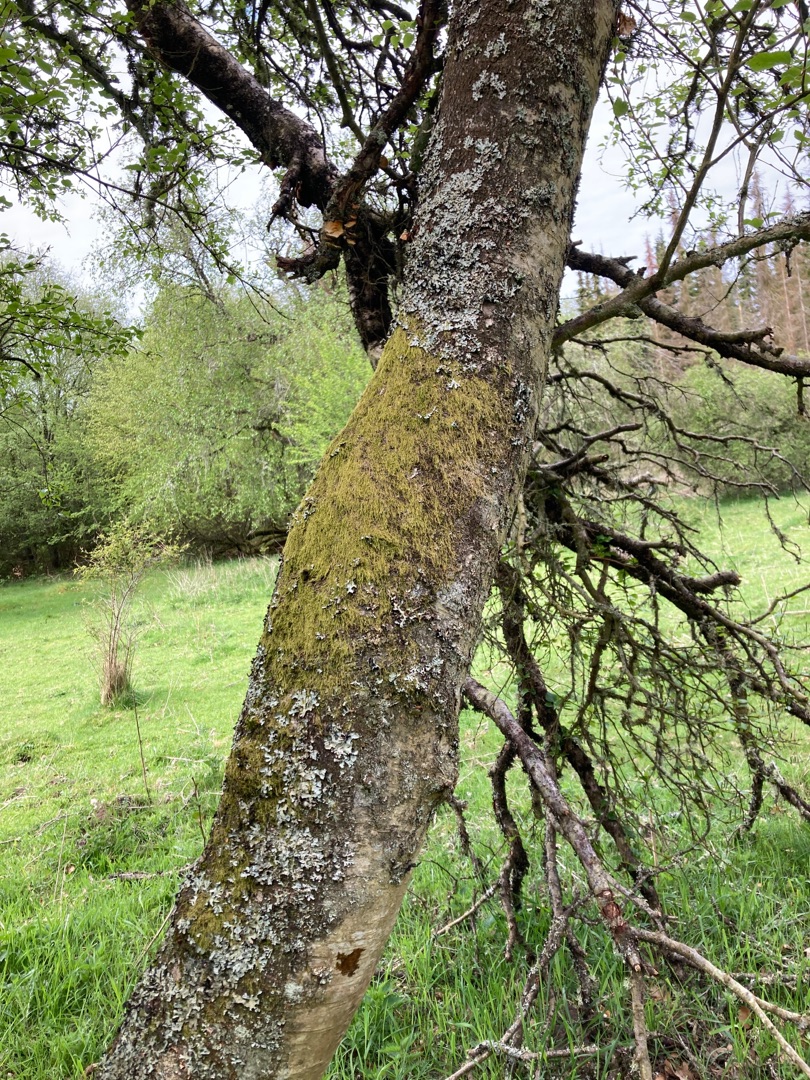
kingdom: Plantae
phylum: Bryophyta
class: Bryopsida
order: Hypnales
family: Hypnaceae
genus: Hypnum
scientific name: Hypnum
